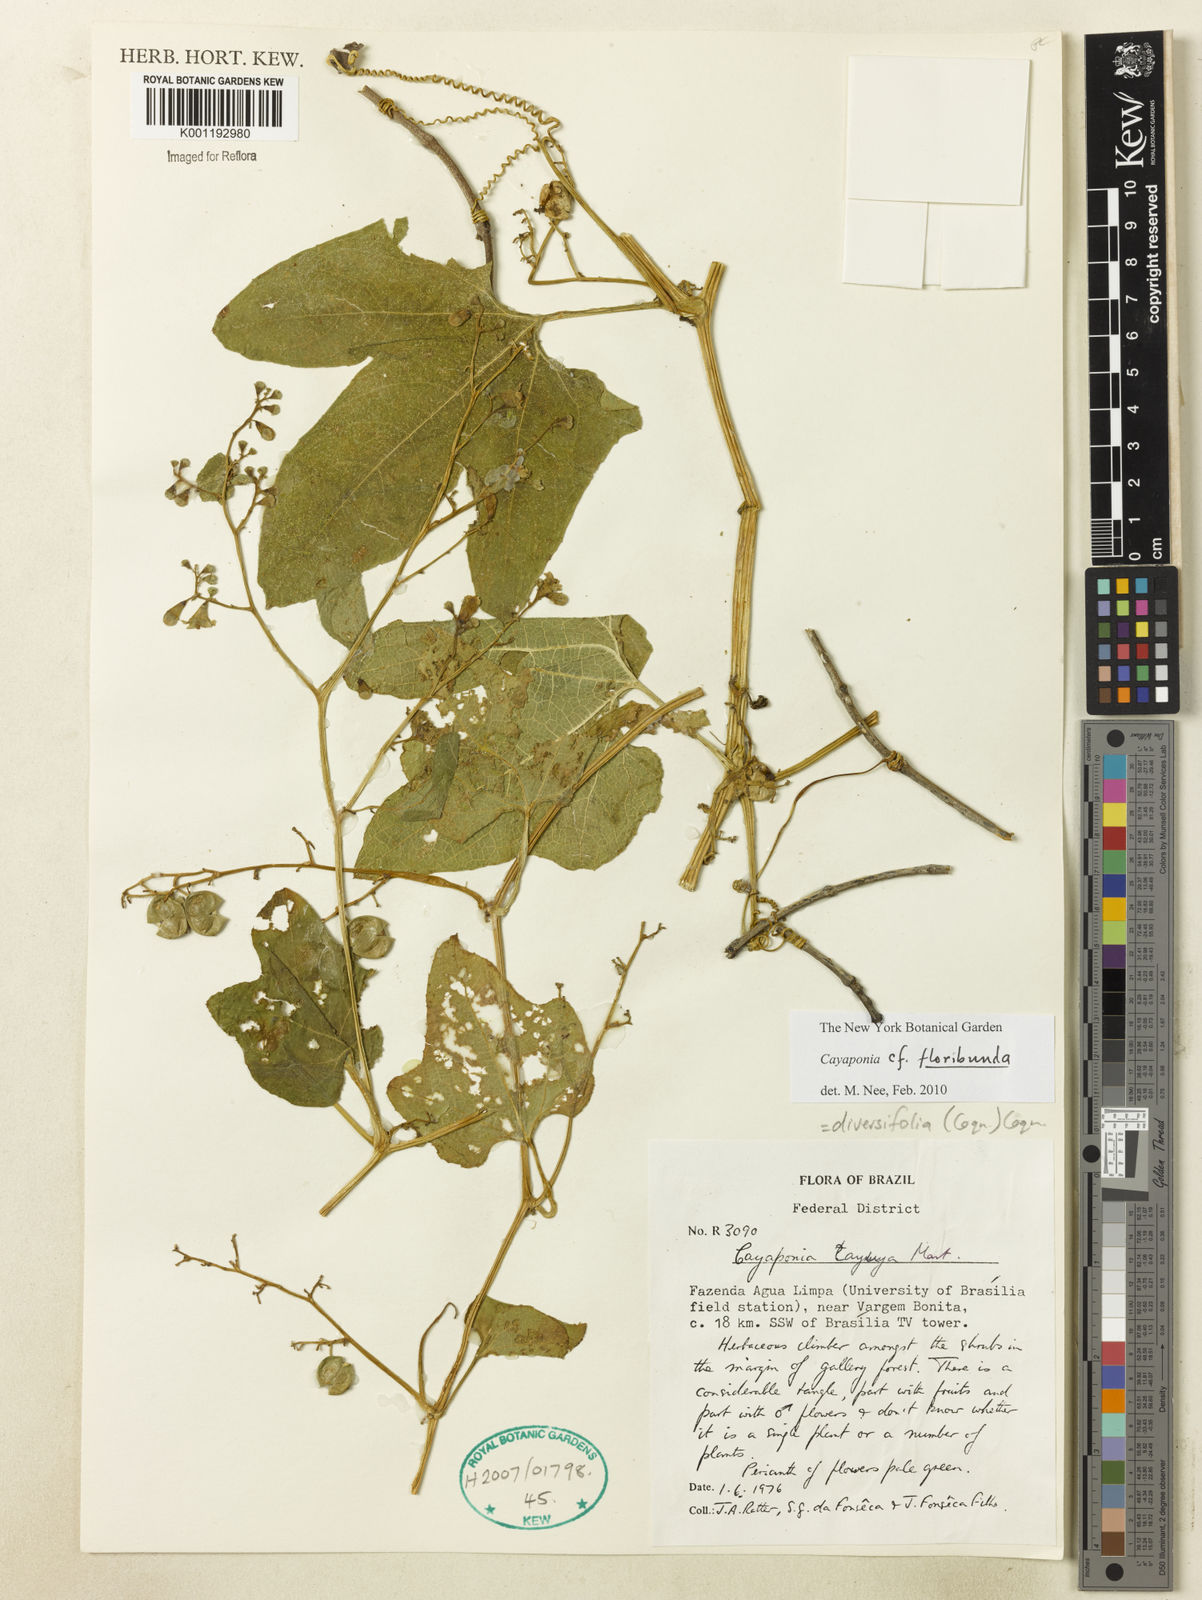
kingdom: Plantae
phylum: Tracheophyta
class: Magnoliopsida
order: Cucurbitales
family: Cucurbitaceae
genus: Cayaponia
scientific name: Cayaponia floribunda
